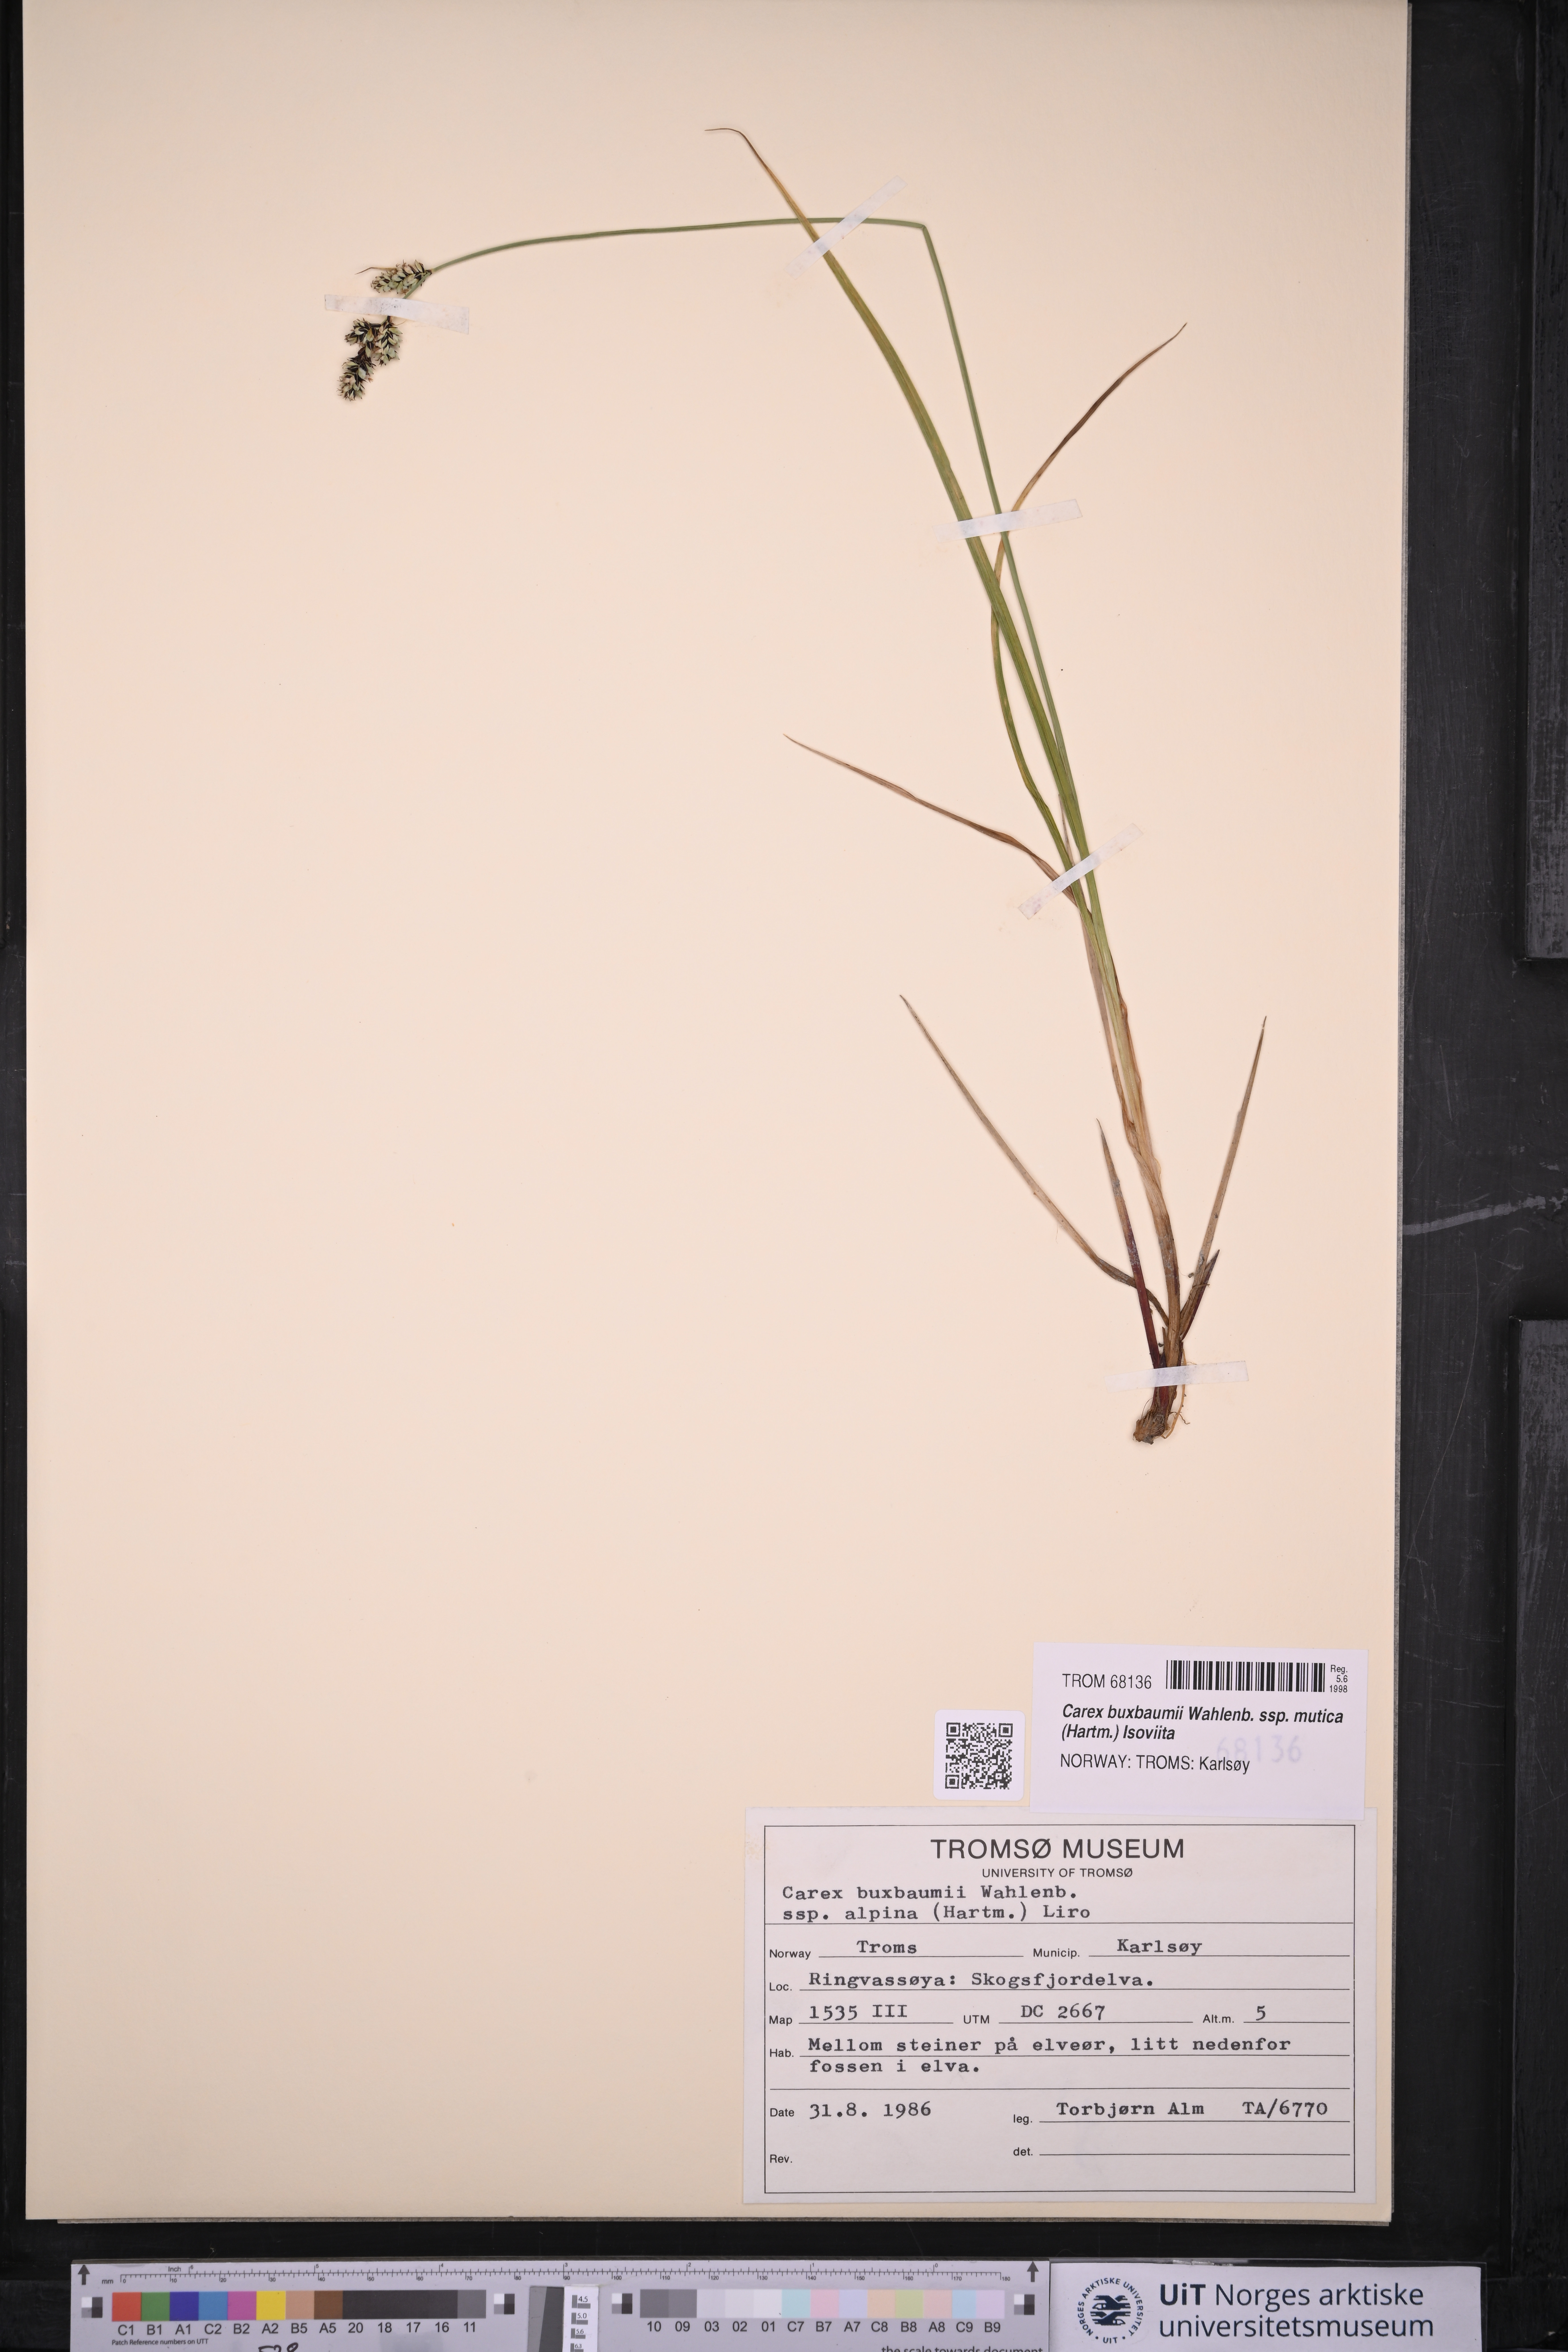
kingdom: Plantae
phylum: Tracheophyta
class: Liliopsida
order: Poales
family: Cyperaceae
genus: Carex
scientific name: Carex adelostoma
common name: Circumpolar sedge
